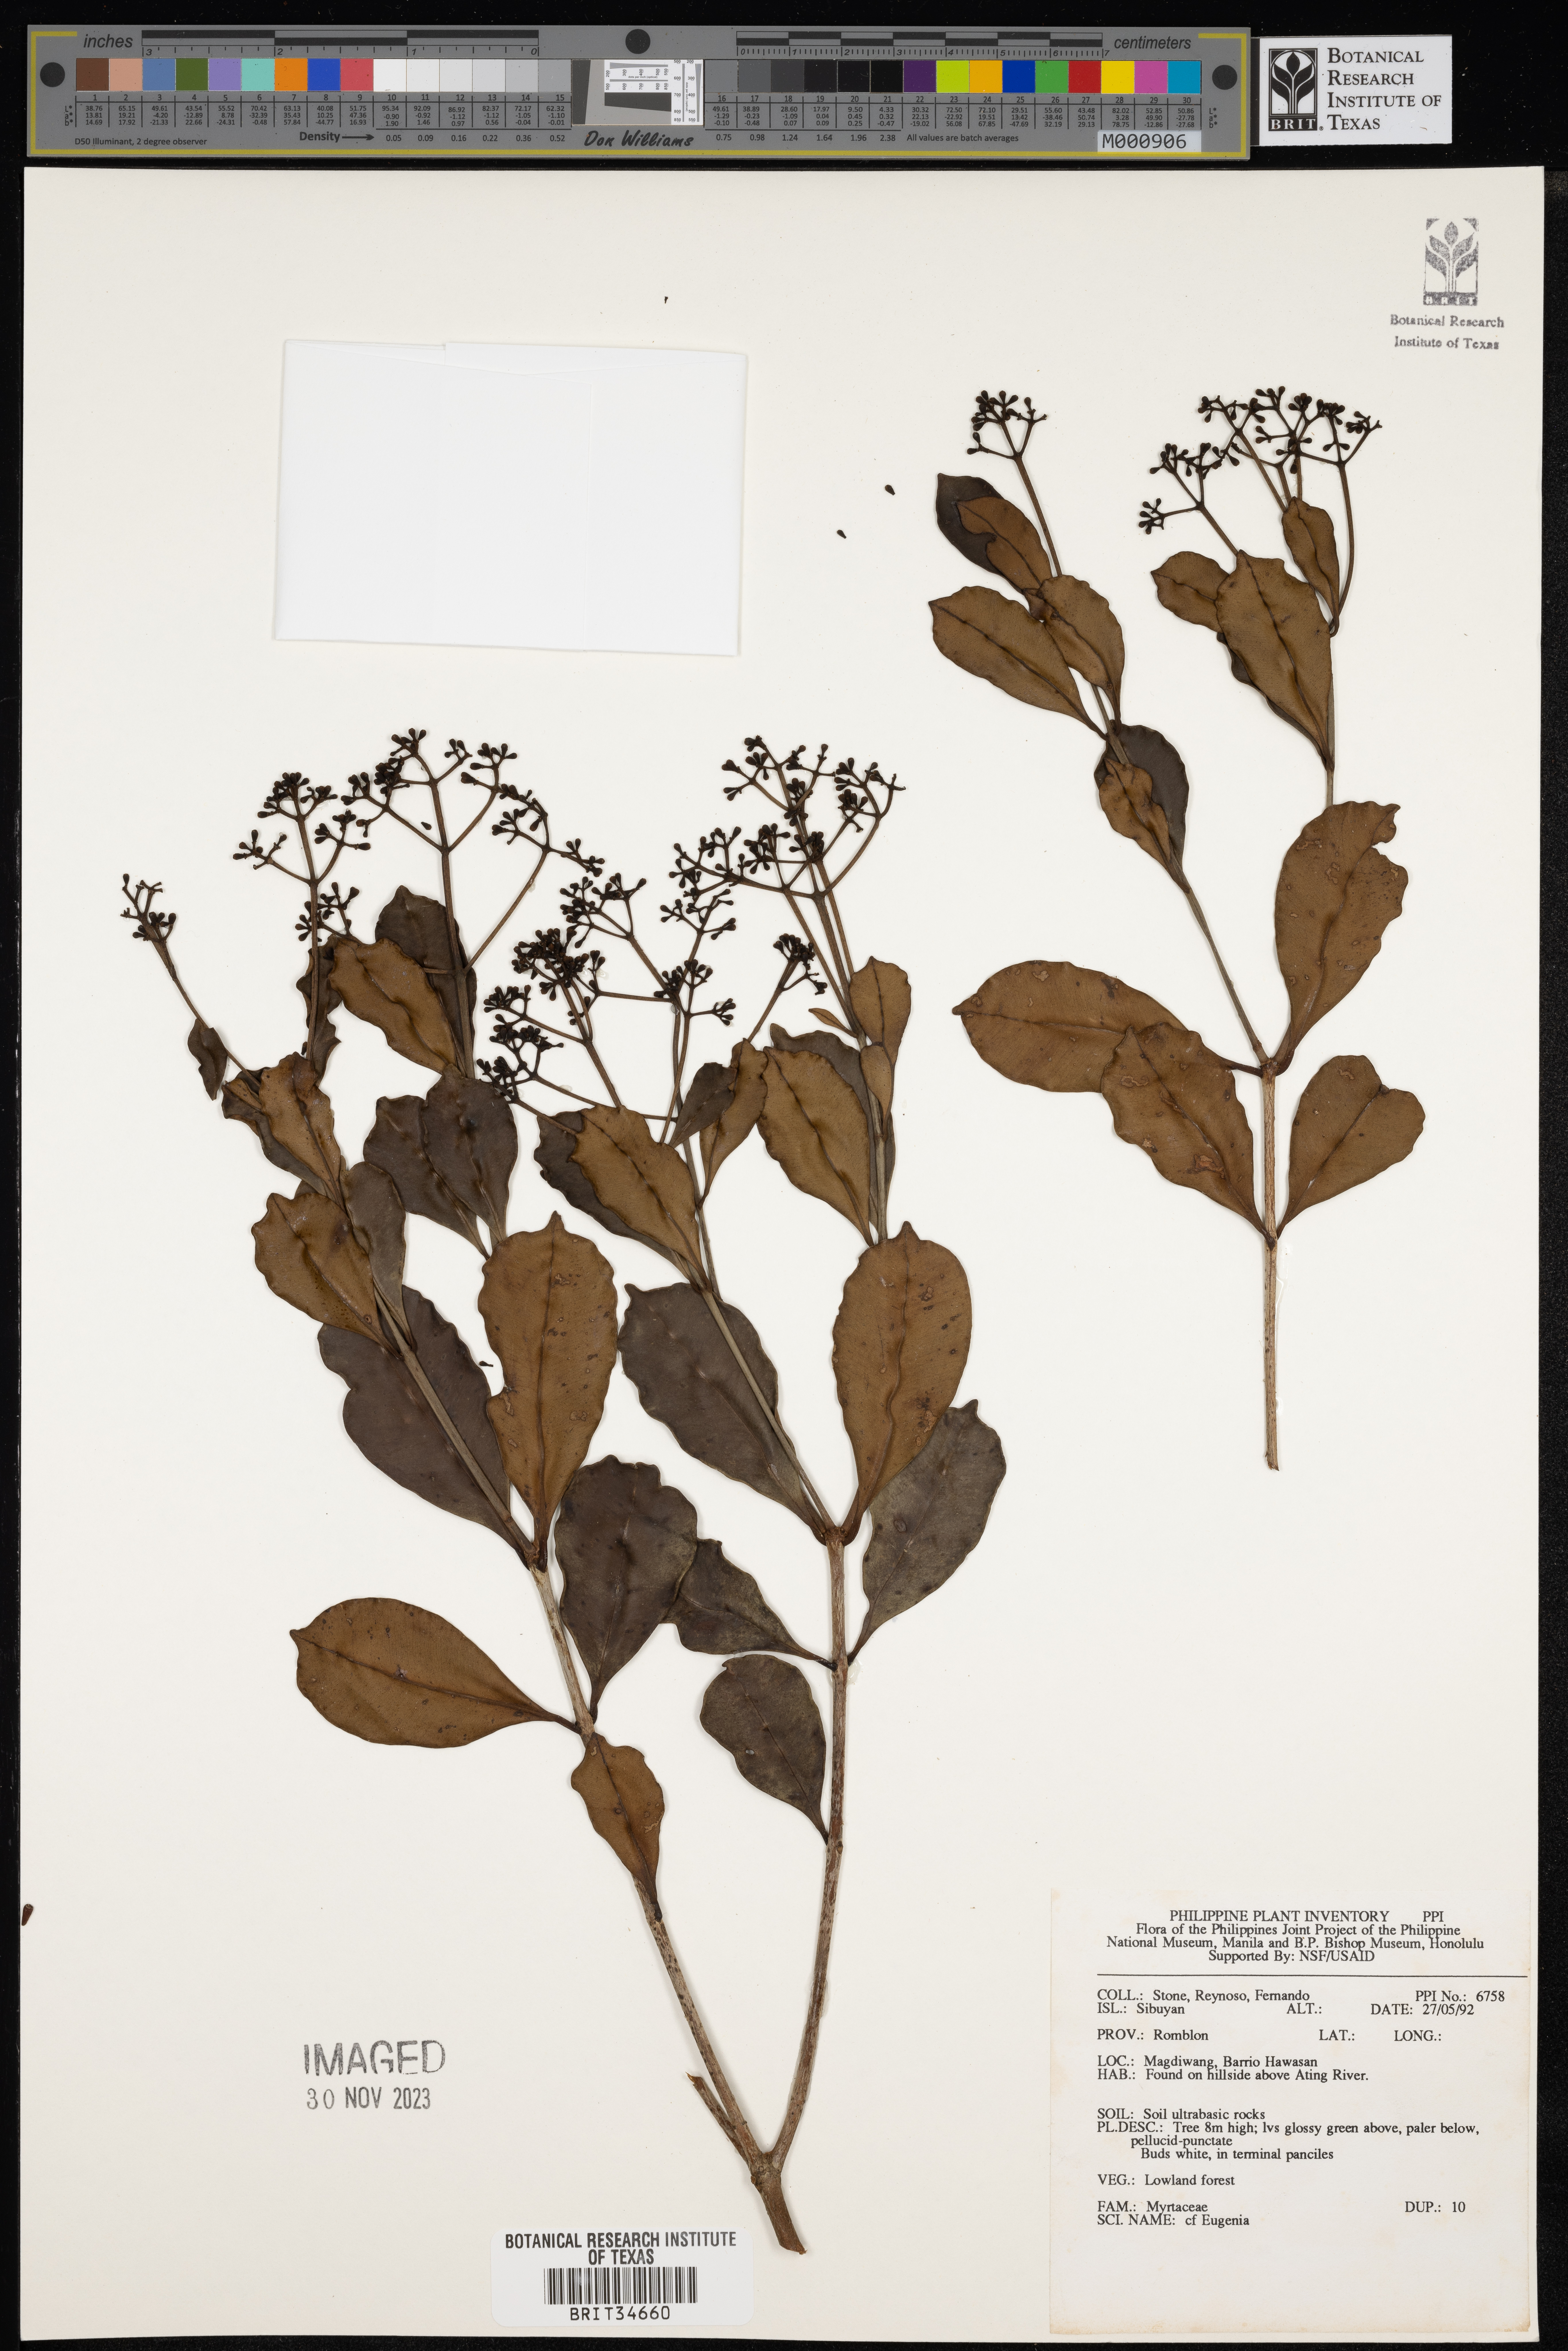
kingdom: Plantae
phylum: Tracheophyta
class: Magnoliopsida
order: Myrtales
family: Myrtaceae
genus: Eugenia
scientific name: Eugenia
